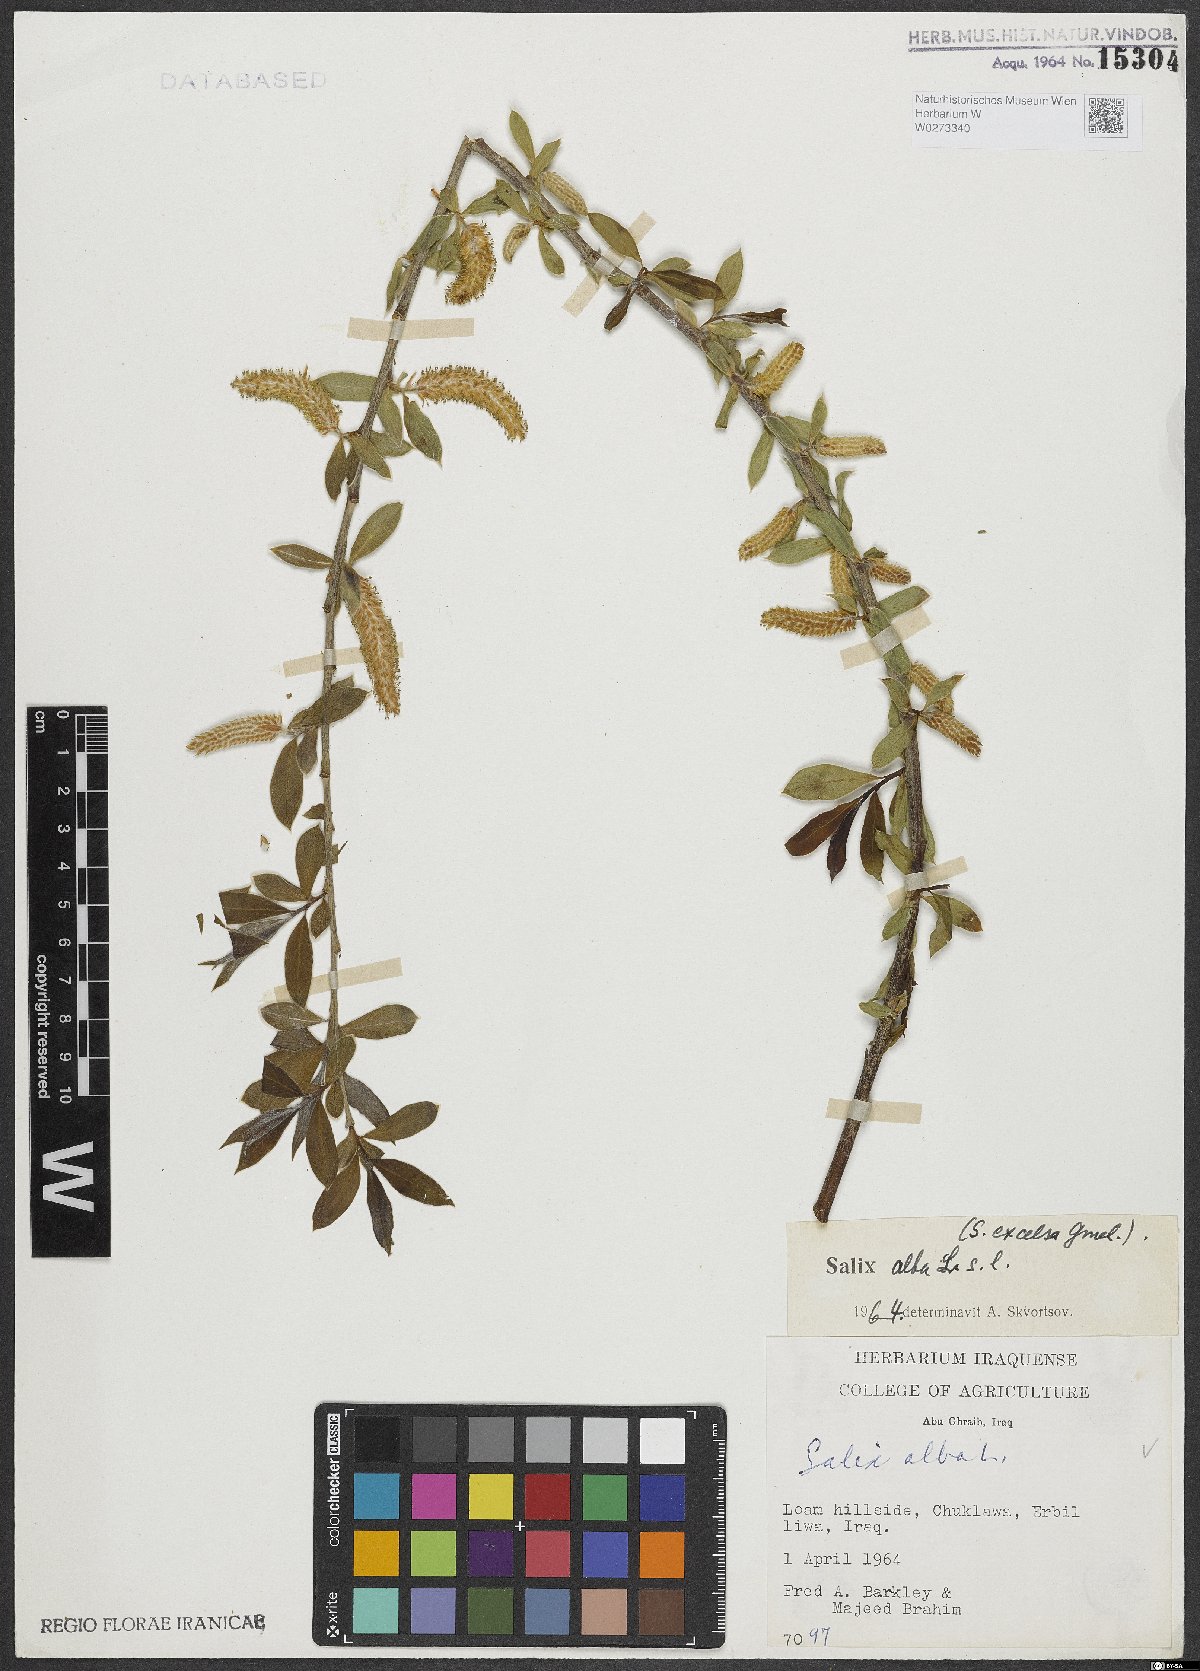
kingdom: Plantae
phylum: Tracheophyta
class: Magnoliopsida
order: Malpighiales
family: Salicaceae
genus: Salix
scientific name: Salix alba
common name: White willow
